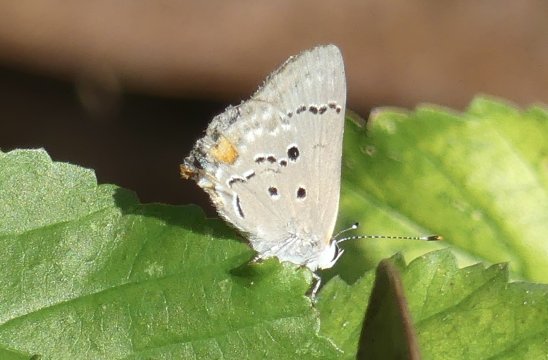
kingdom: Animalia
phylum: Arthropoda
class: Insecta
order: Lepidoptera
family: Lycaenidae
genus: Thecla
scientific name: Thecla limenia
